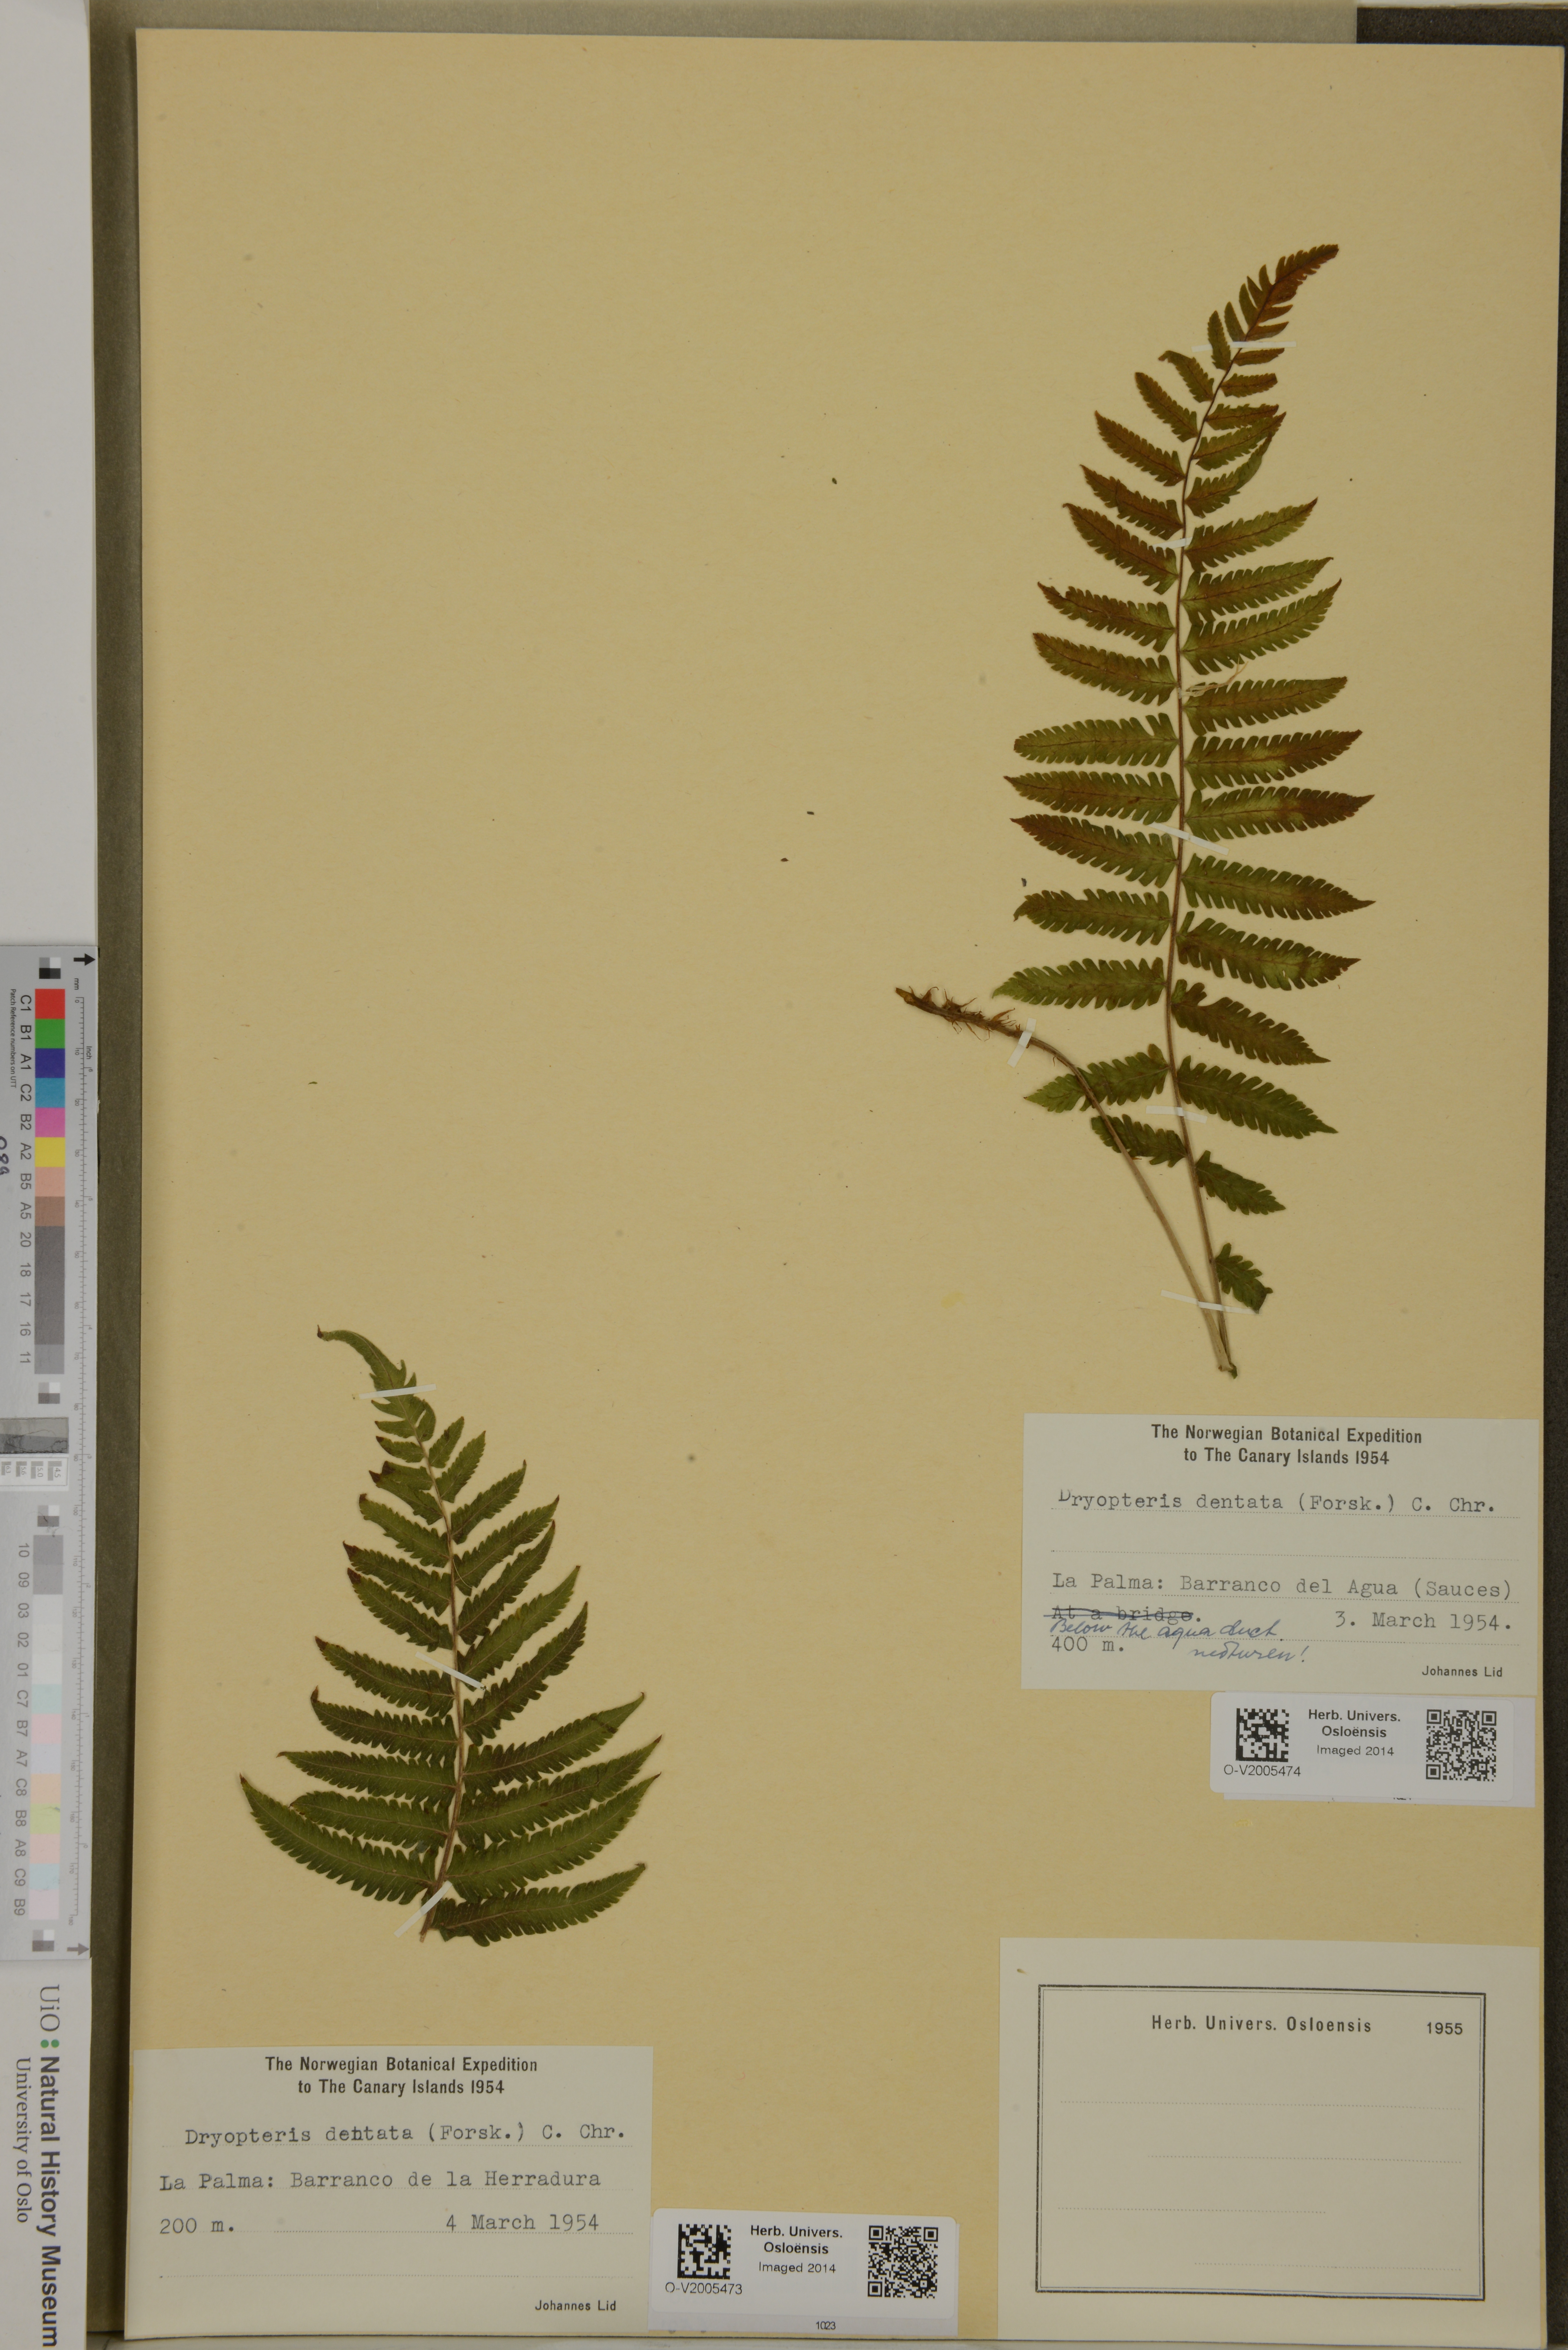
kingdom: Plantae
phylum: Tracheophyta
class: Polypodiopsida
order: Polypodiales
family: Thelypteridaceae
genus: Christella
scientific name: Christella dentata
